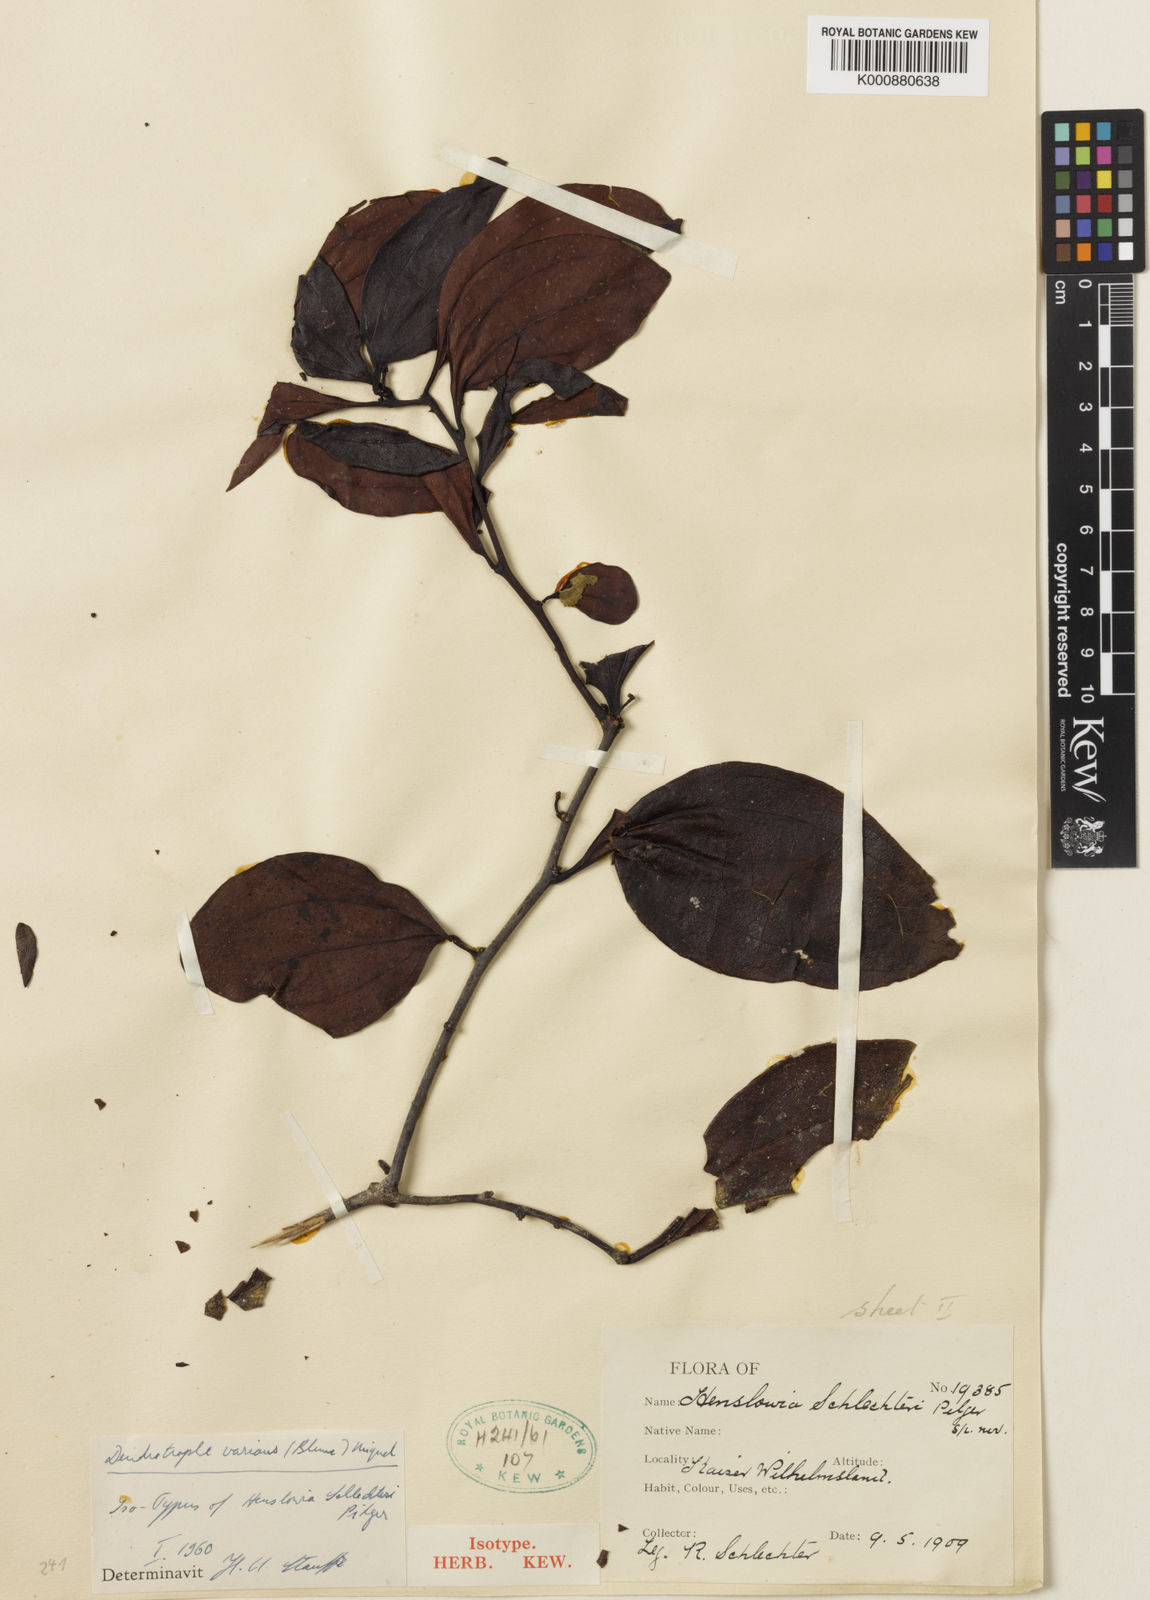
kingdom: Plantae
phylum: Tracheophyta
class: Magnoliopsida
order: Santalales
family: Amphorogynaceae
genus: Dendrotrophe
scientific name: Dendrotrophe varians
